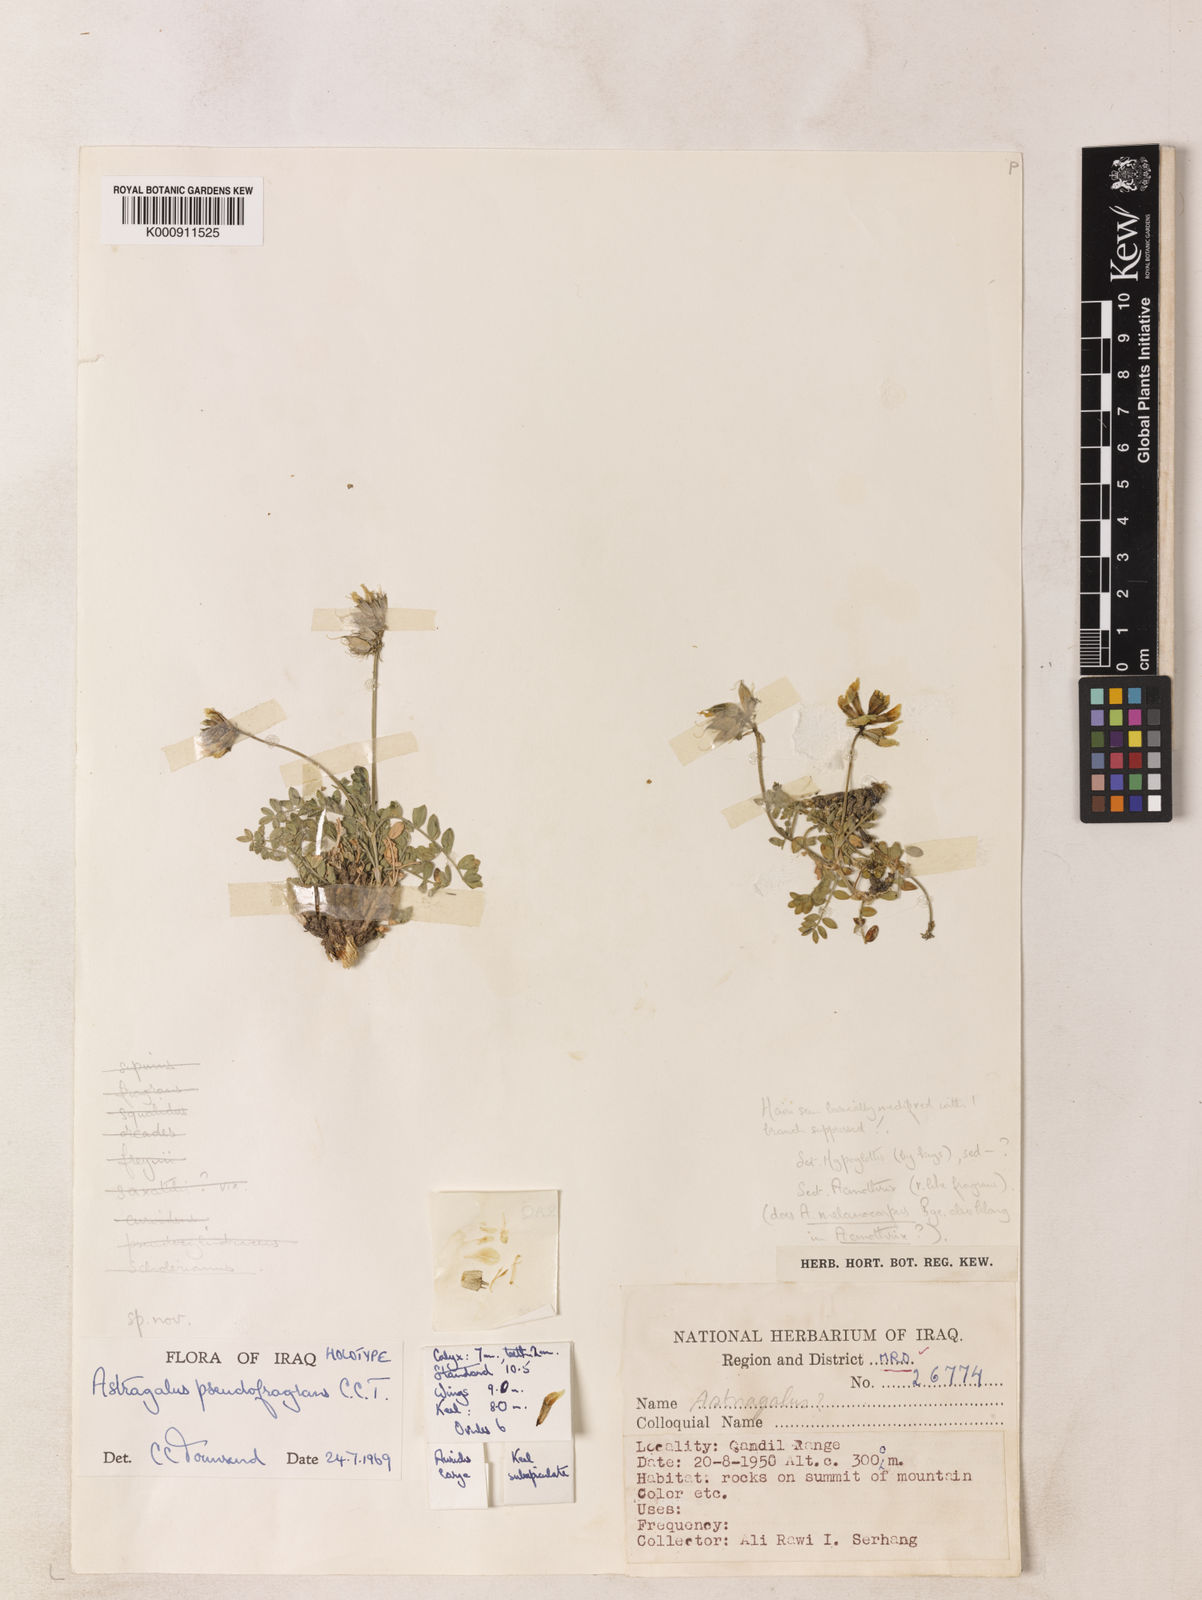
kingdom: Plantae
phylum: Tracheophyta
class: Magnoliopsida
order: Fabales
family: Fabaceae
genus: Astragalus
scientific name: Astragalus pseudofragrans
